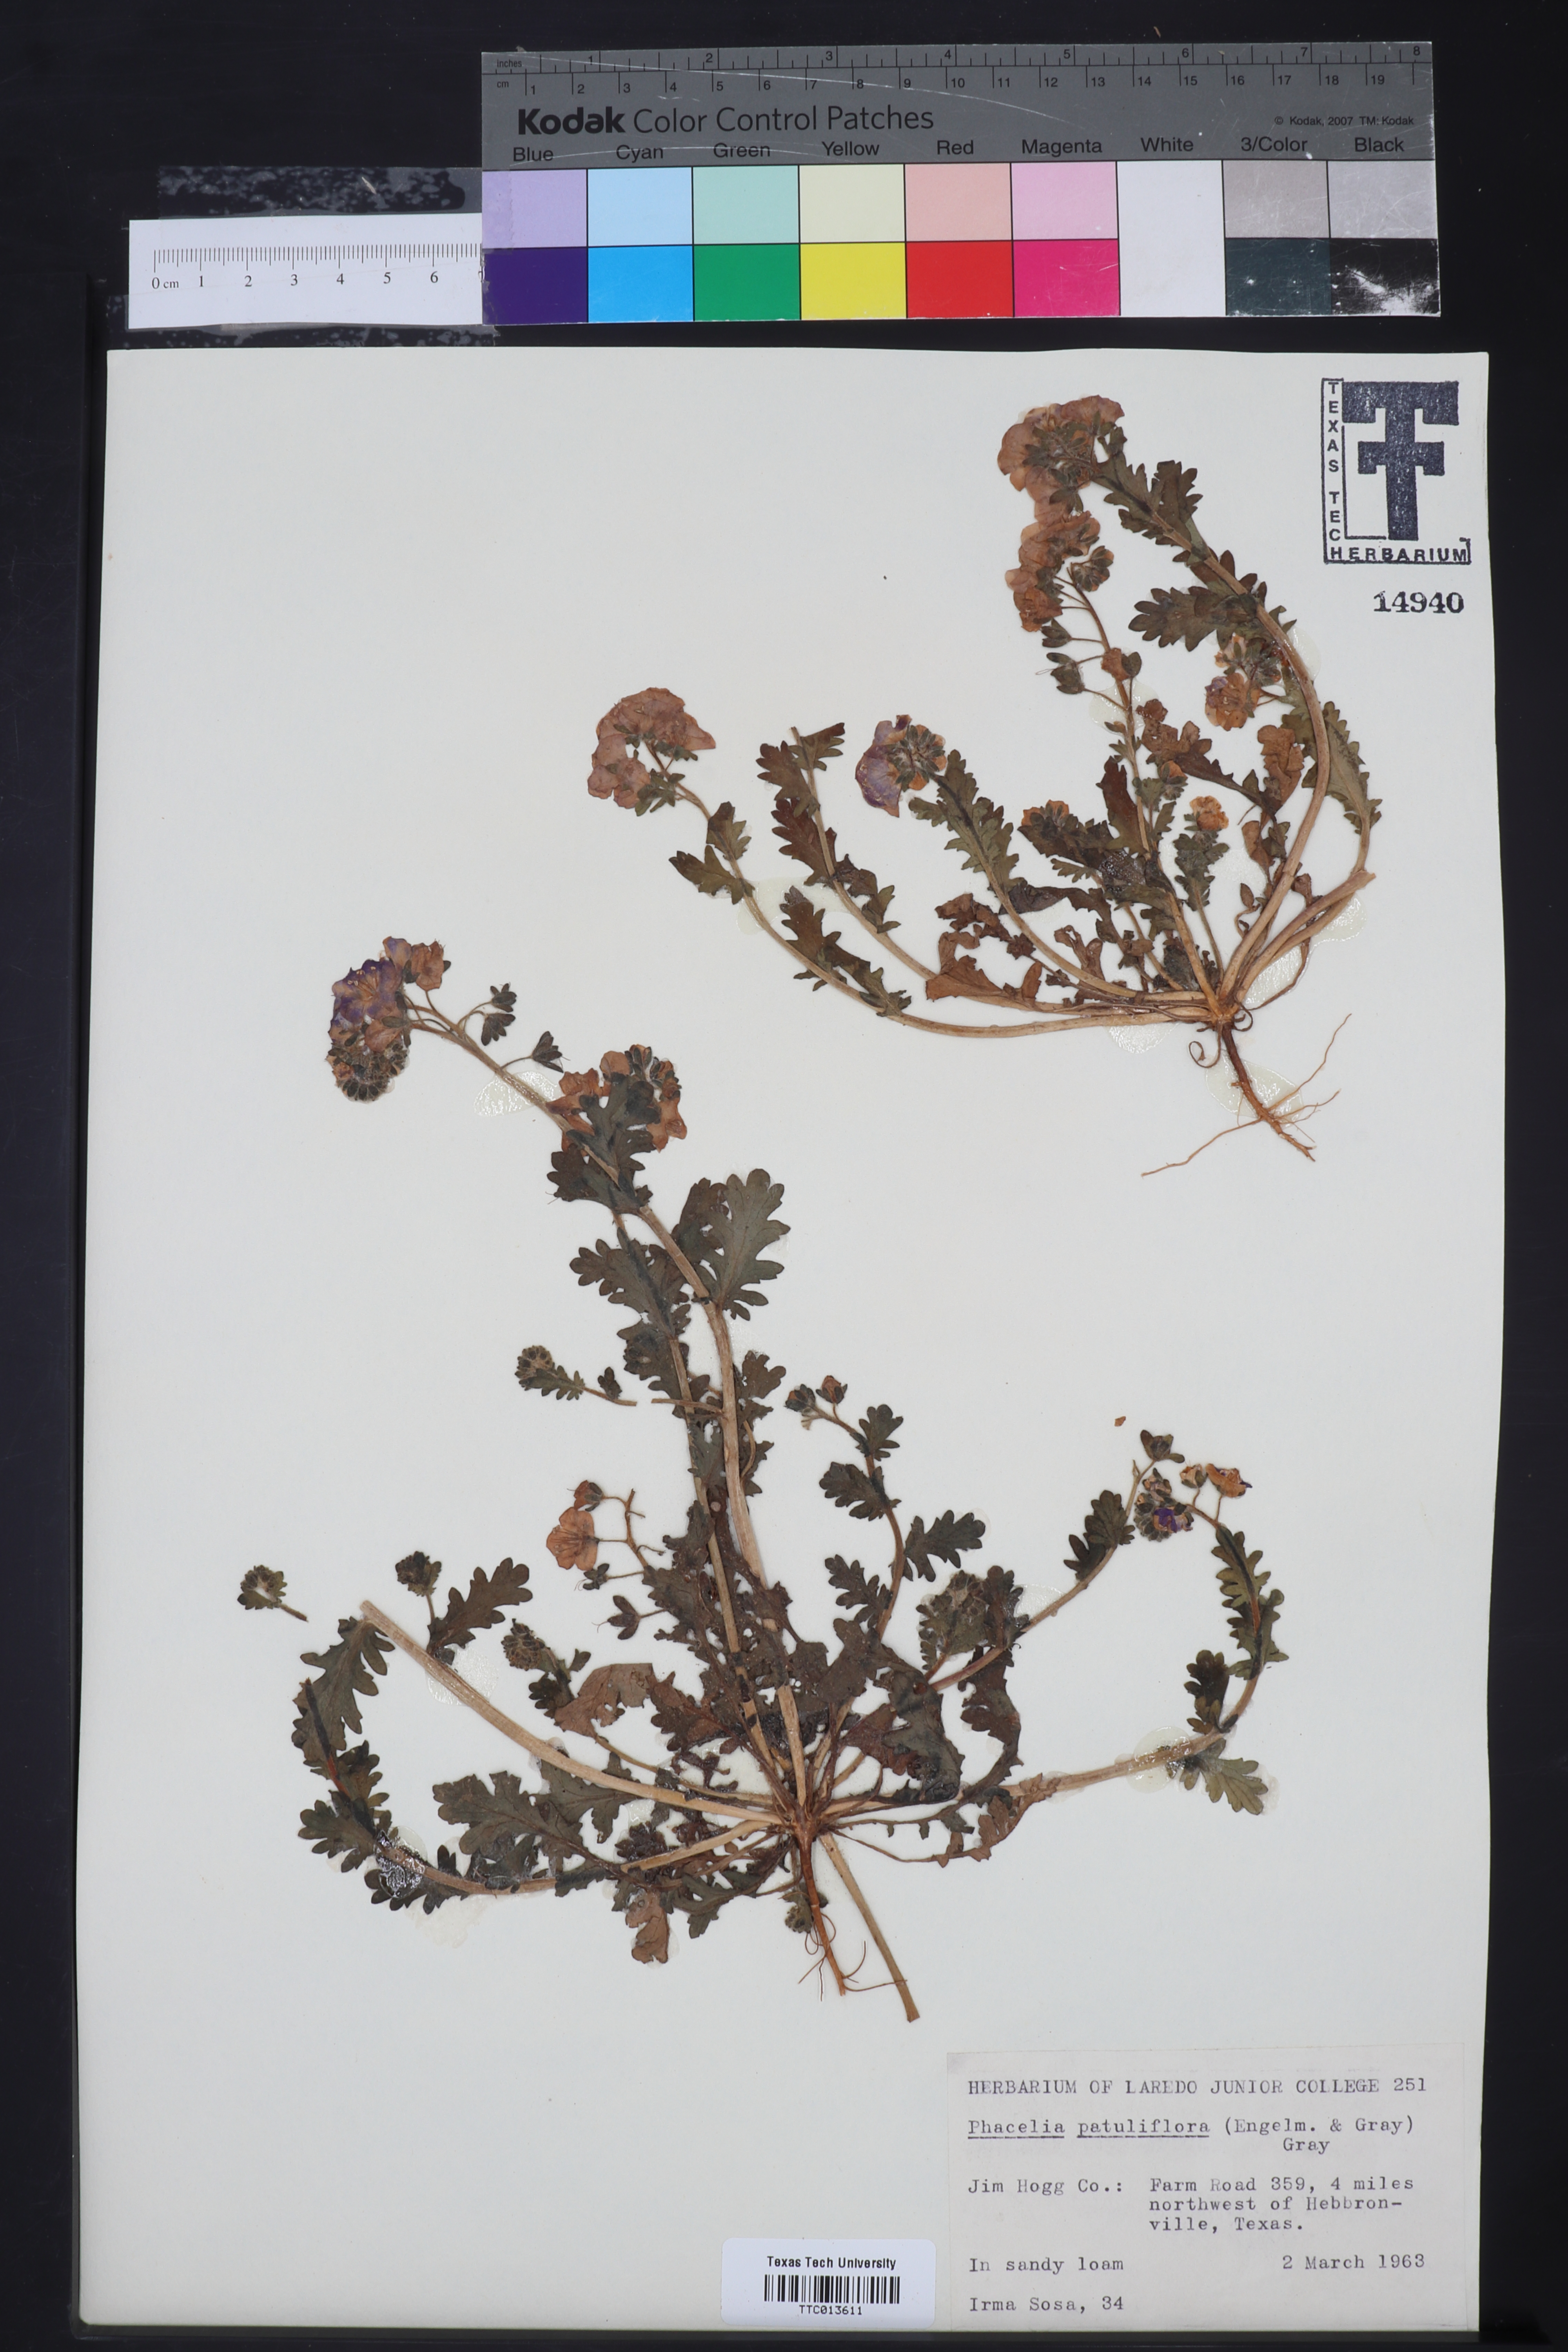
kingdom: Plantae
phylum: Tracheophyta
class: Magnoliopsida
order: Boraginales
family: Hydrophyllaceae
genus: Phacelia
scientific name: Phacelia patuliflora
